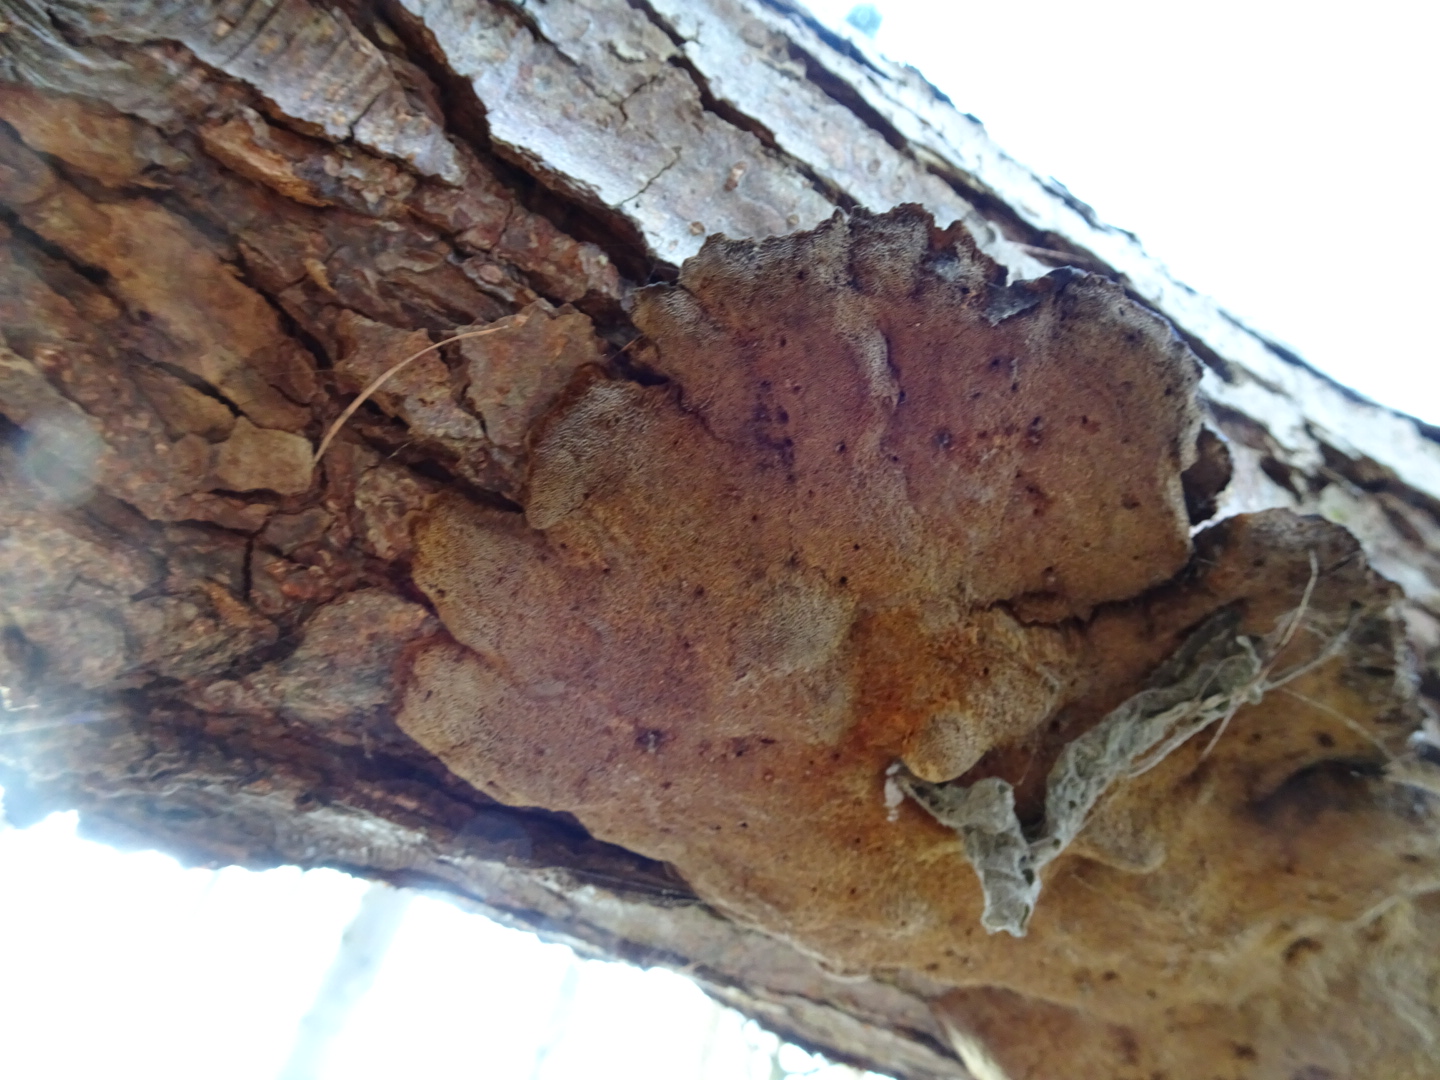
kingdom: Fungi
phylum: Basidiomycota
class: Agaricomycetes
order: Hymenochaetales
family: Hymenochaetaceae
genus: Xanthoporia
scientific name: Xanthoporia radiata
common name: elle-spejlporesvamp
